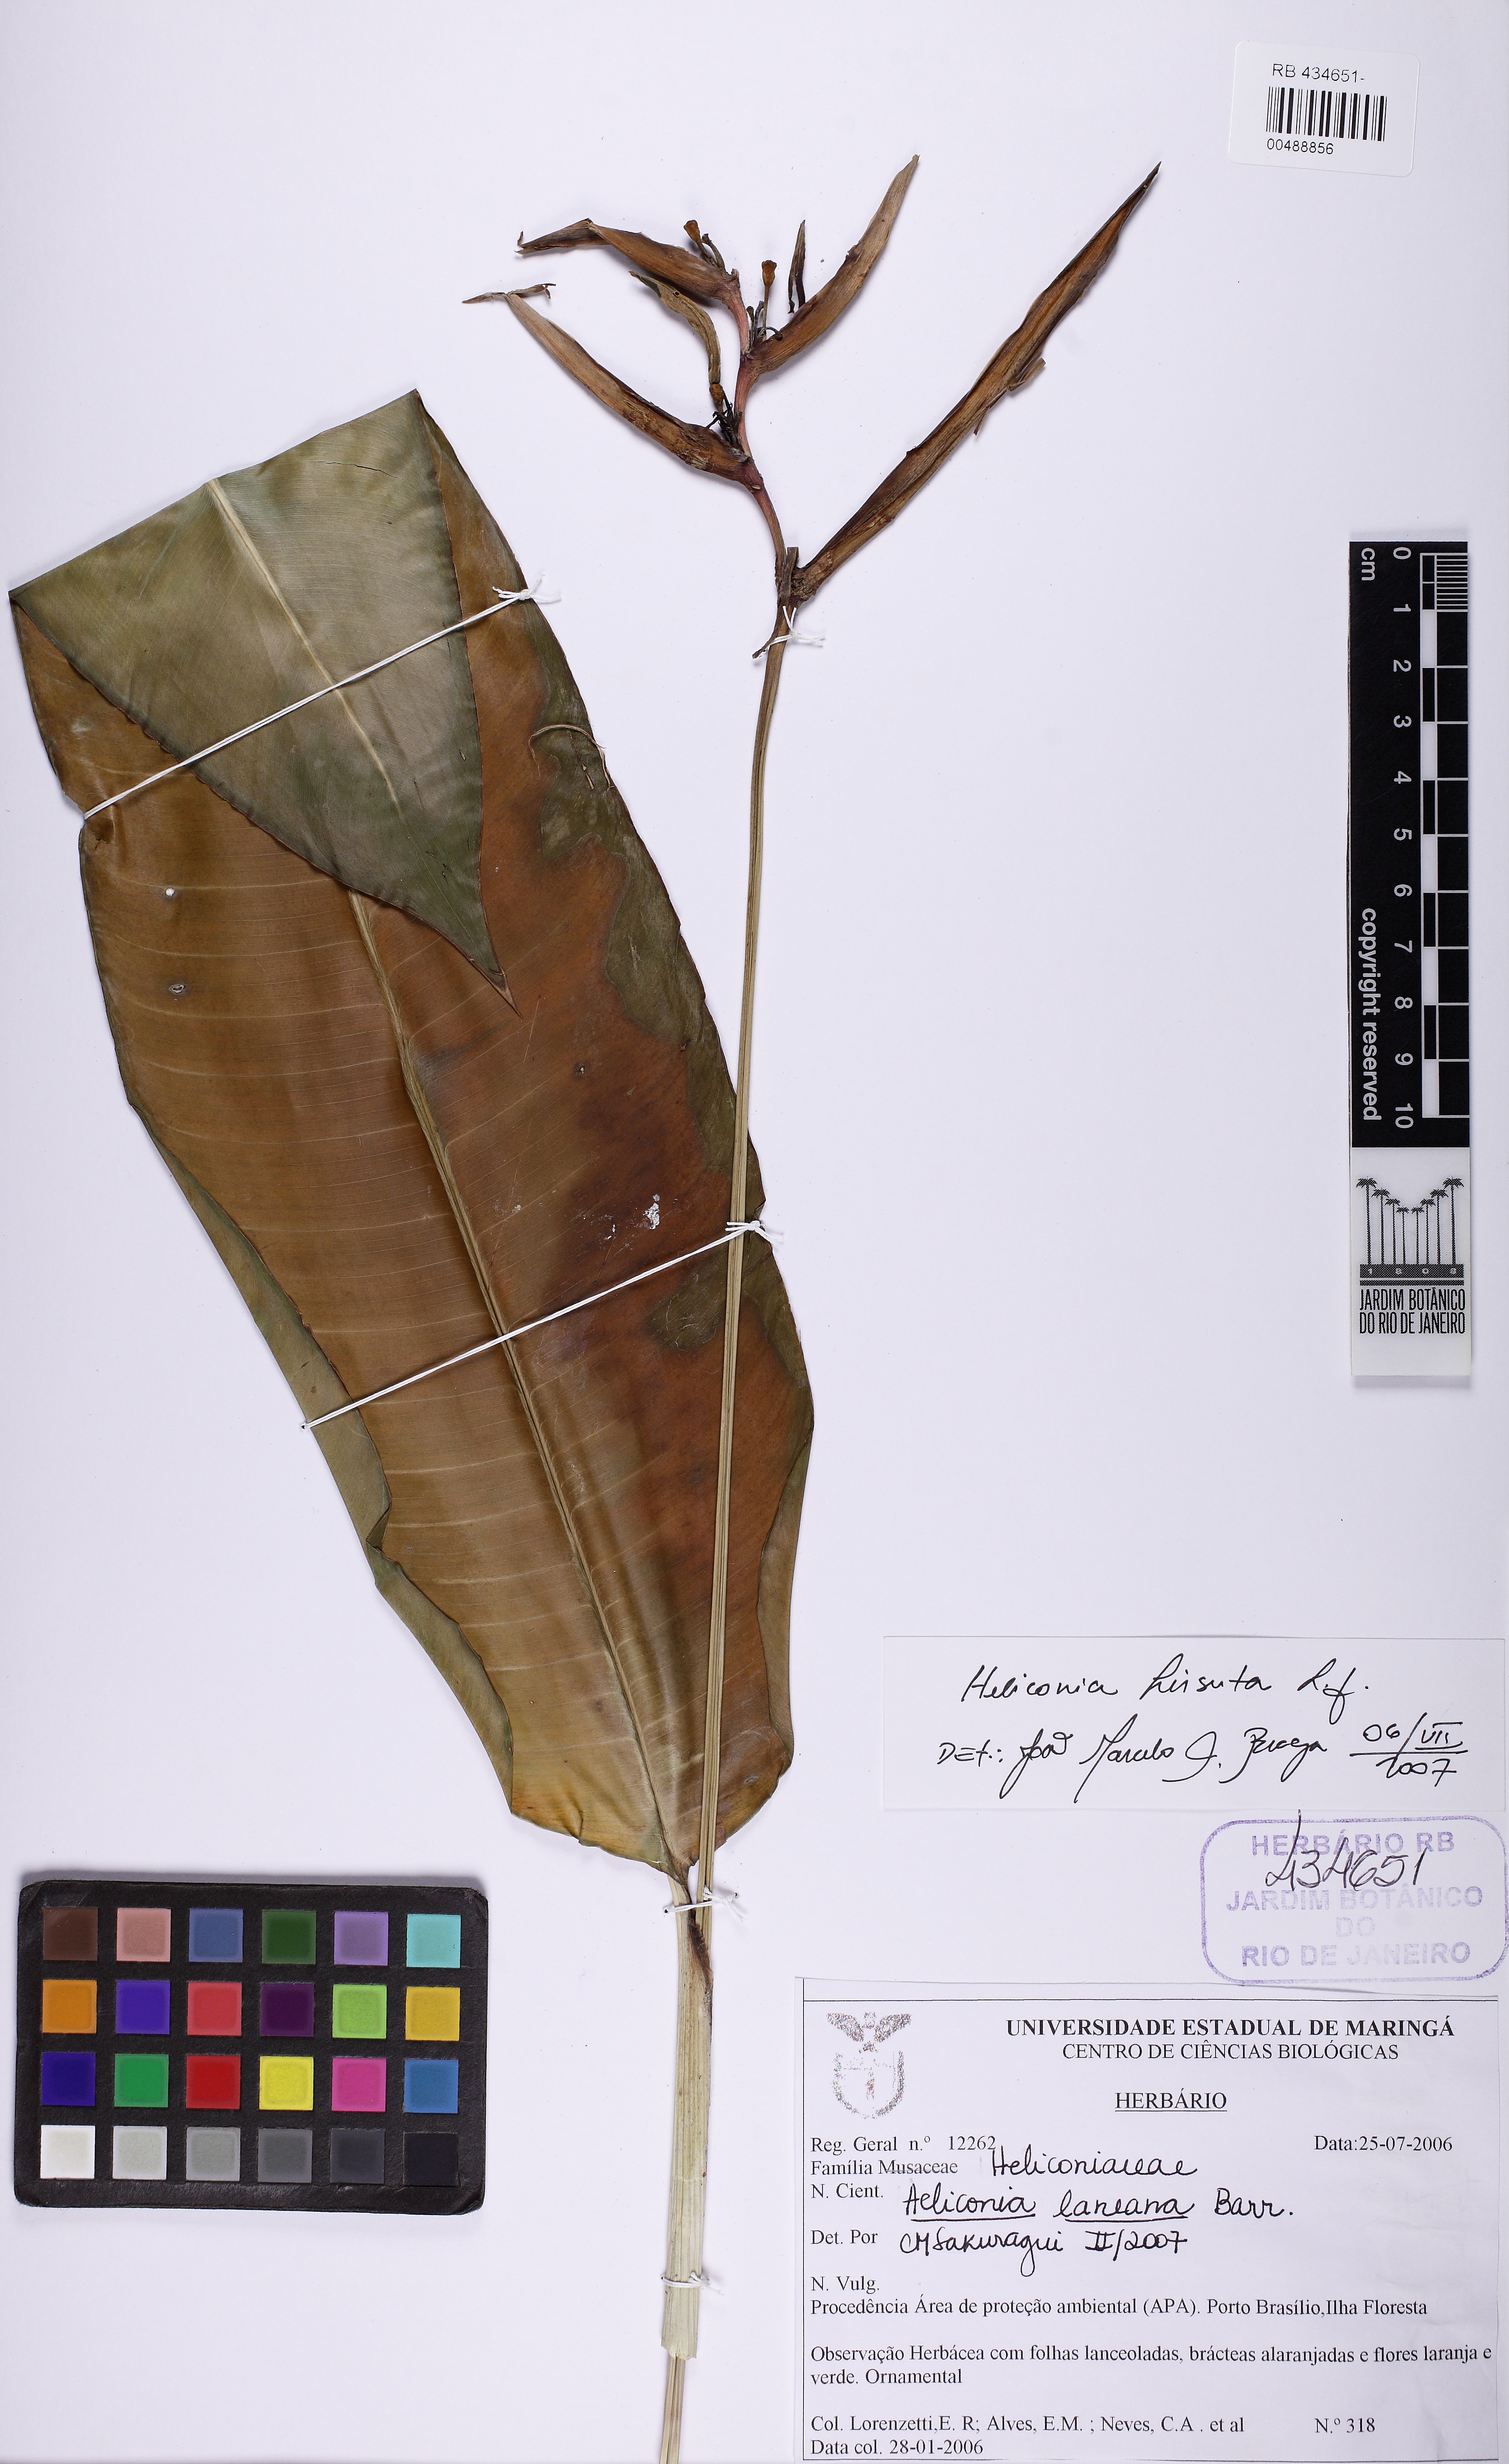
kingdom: Plantae
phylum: Tracheophyta
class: Liliopsida
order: Zingiberales
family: Heliconiaceae
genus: Heliconia
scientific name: Heliconia hirsuta
